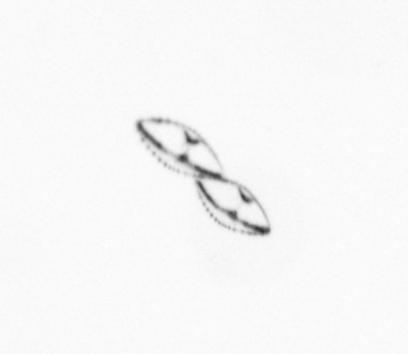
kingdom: Chromista
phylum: Ochrophyta
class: Bacillariophyceae
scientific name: Bacillariophyceae
